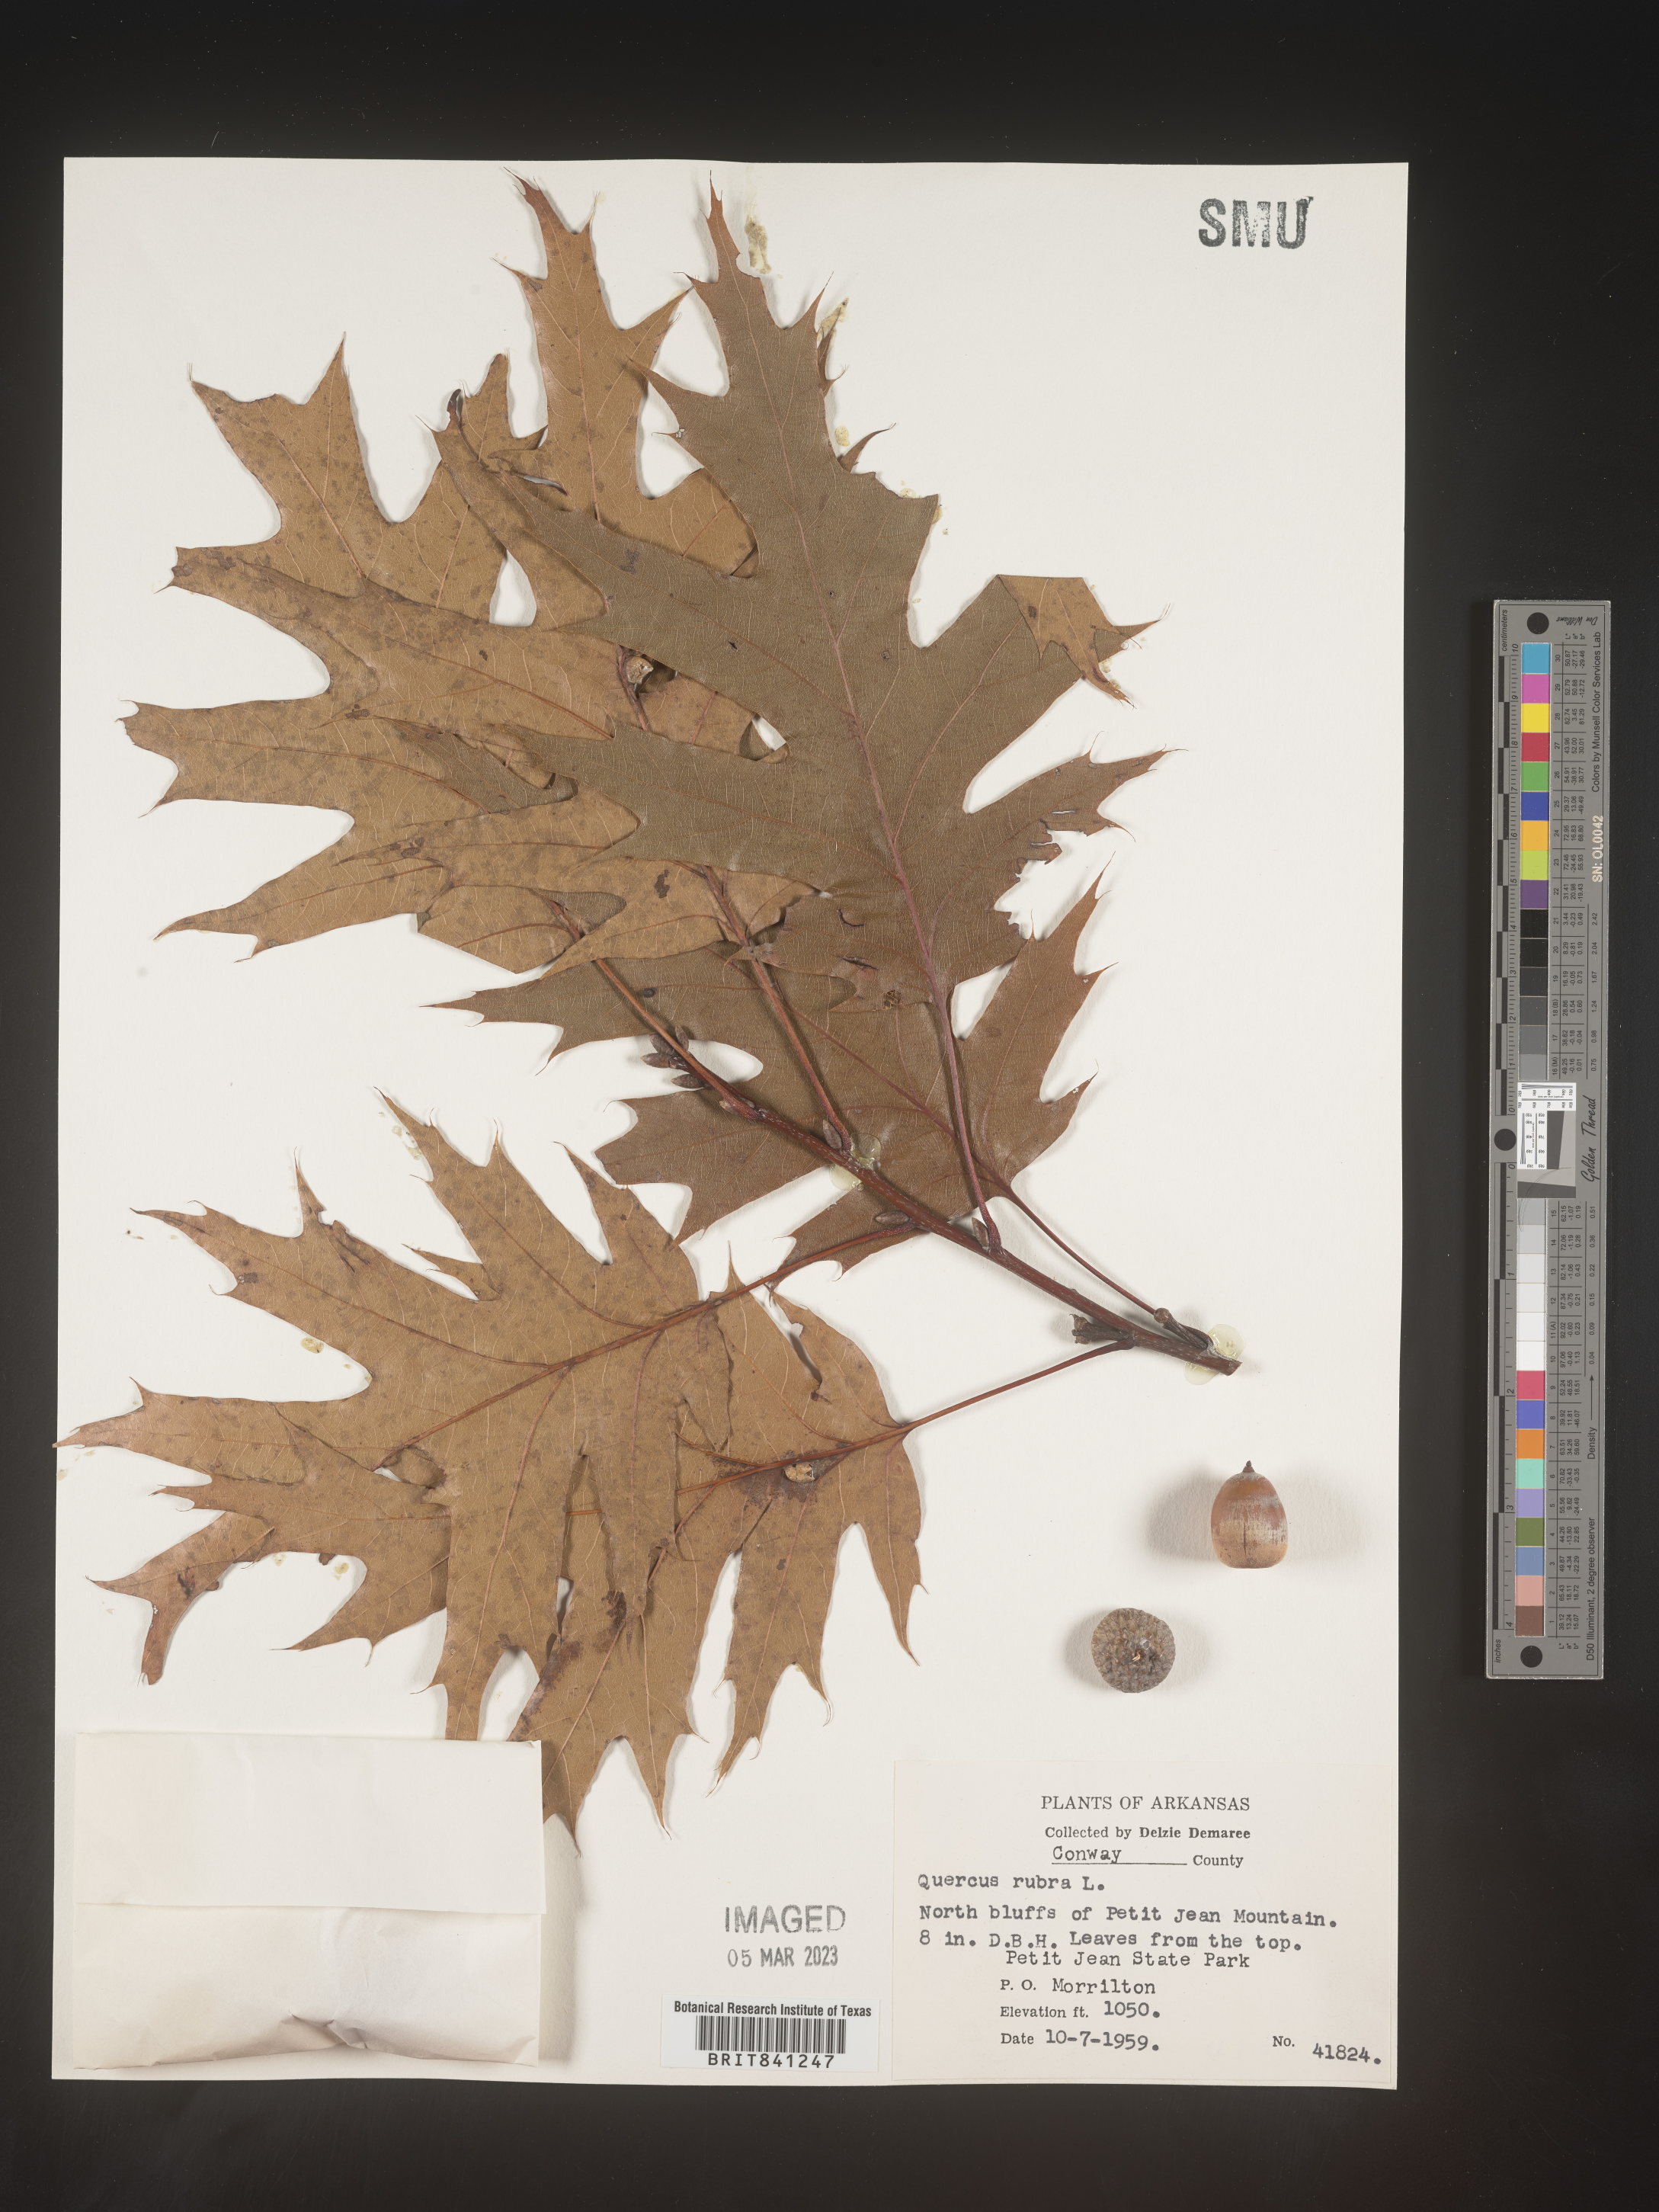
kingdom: Plantae
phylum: Tracheophyta
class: Magnoliopsida
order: Fagales
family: Fagaceae
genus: Quercus
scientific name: Quercus rubra
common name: Red oak
